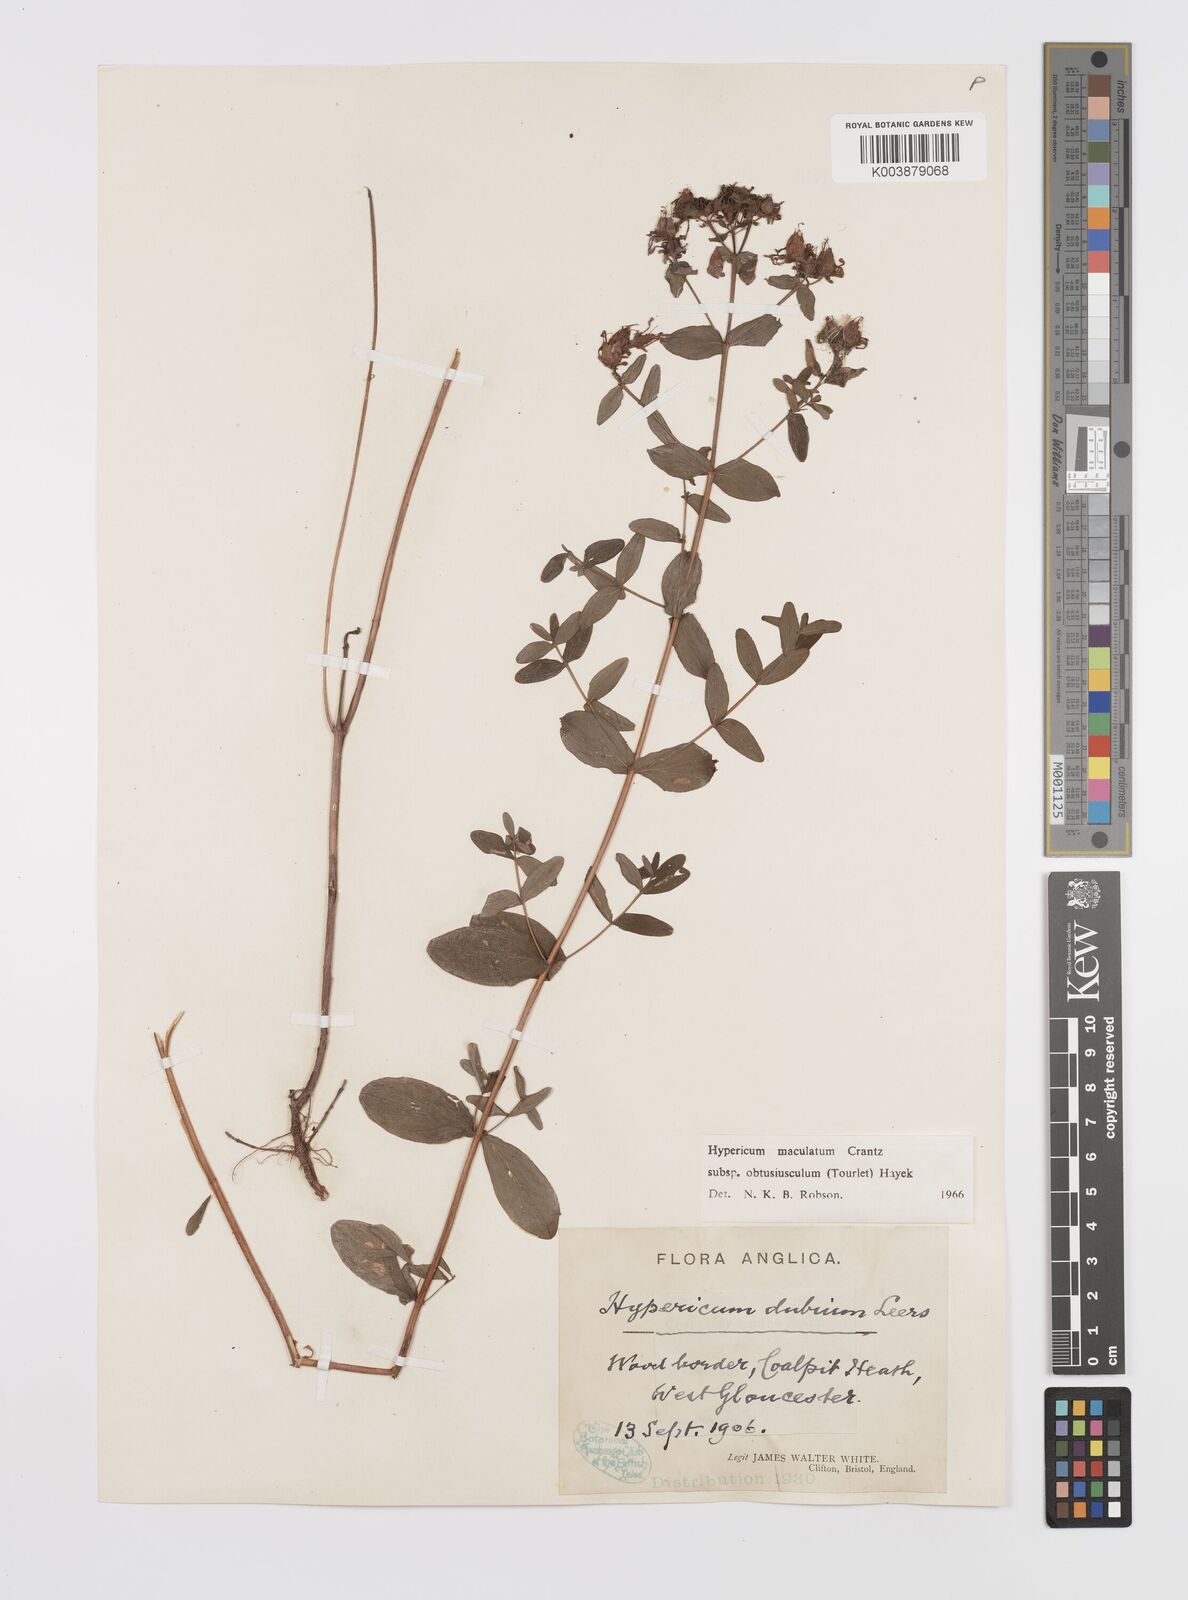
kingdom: Plantae
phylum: Tracheophyta
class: Magnoliopsida
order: Malpighiales
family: Hypericaceae
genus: Hypericum
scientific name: Hypericum dubium
